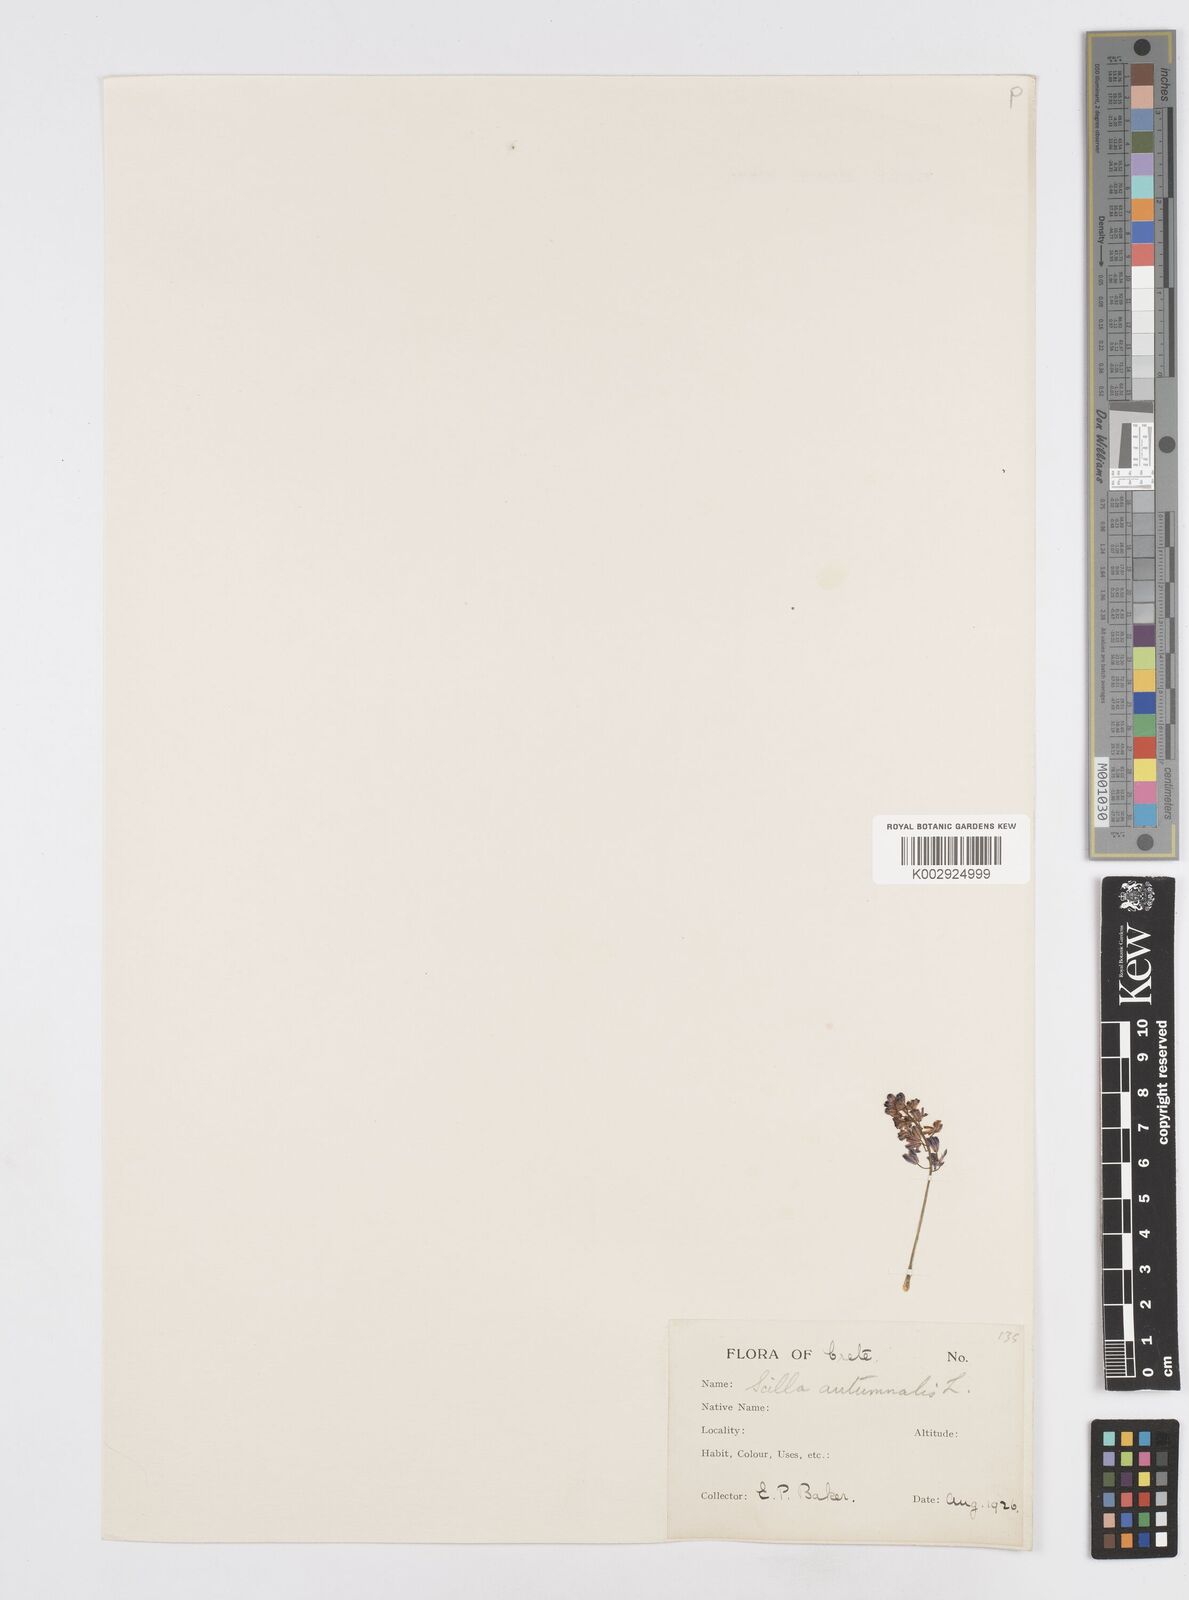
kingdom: Plantae
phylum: Tracheophyta
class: Liliopsida
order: Asparagales
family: Asparagaceae
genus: Prospero
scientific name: Prospero autumnale
